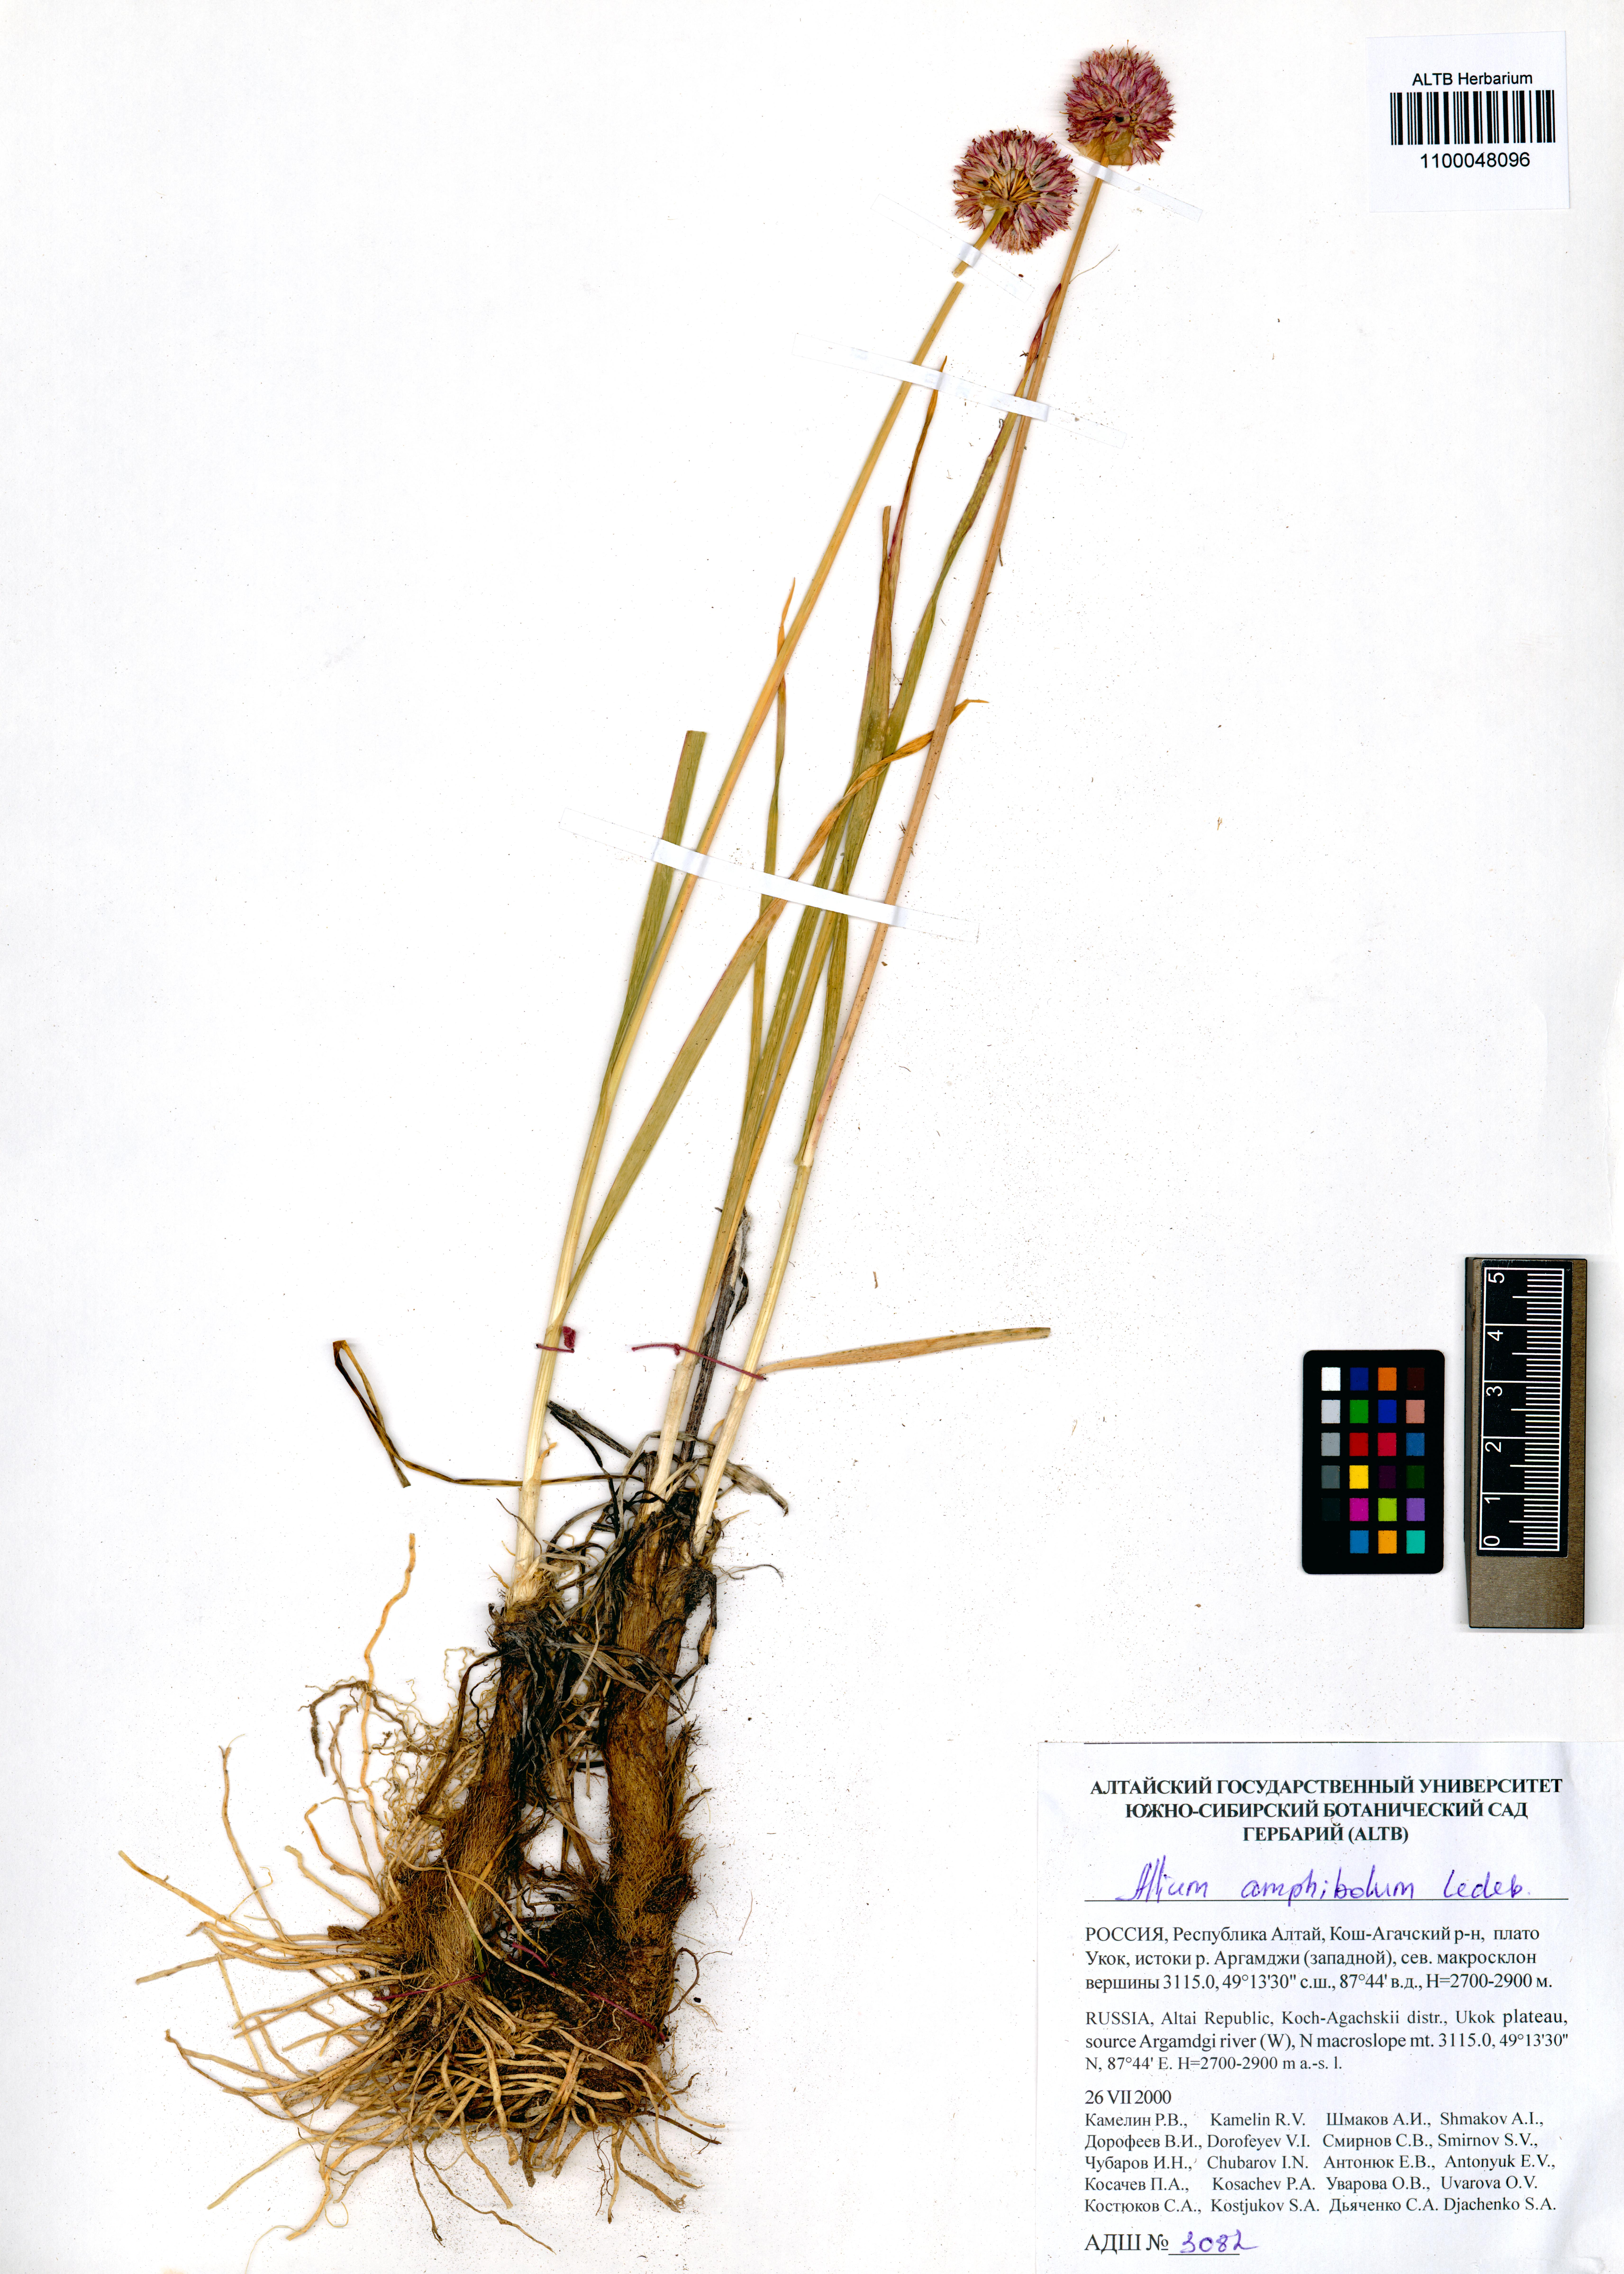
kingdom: Plantae
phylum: Tracheophyta
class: Liliopsida
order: Asparagales
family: Amaryllidaceae
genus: Allium
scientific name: Allium amphibolum
